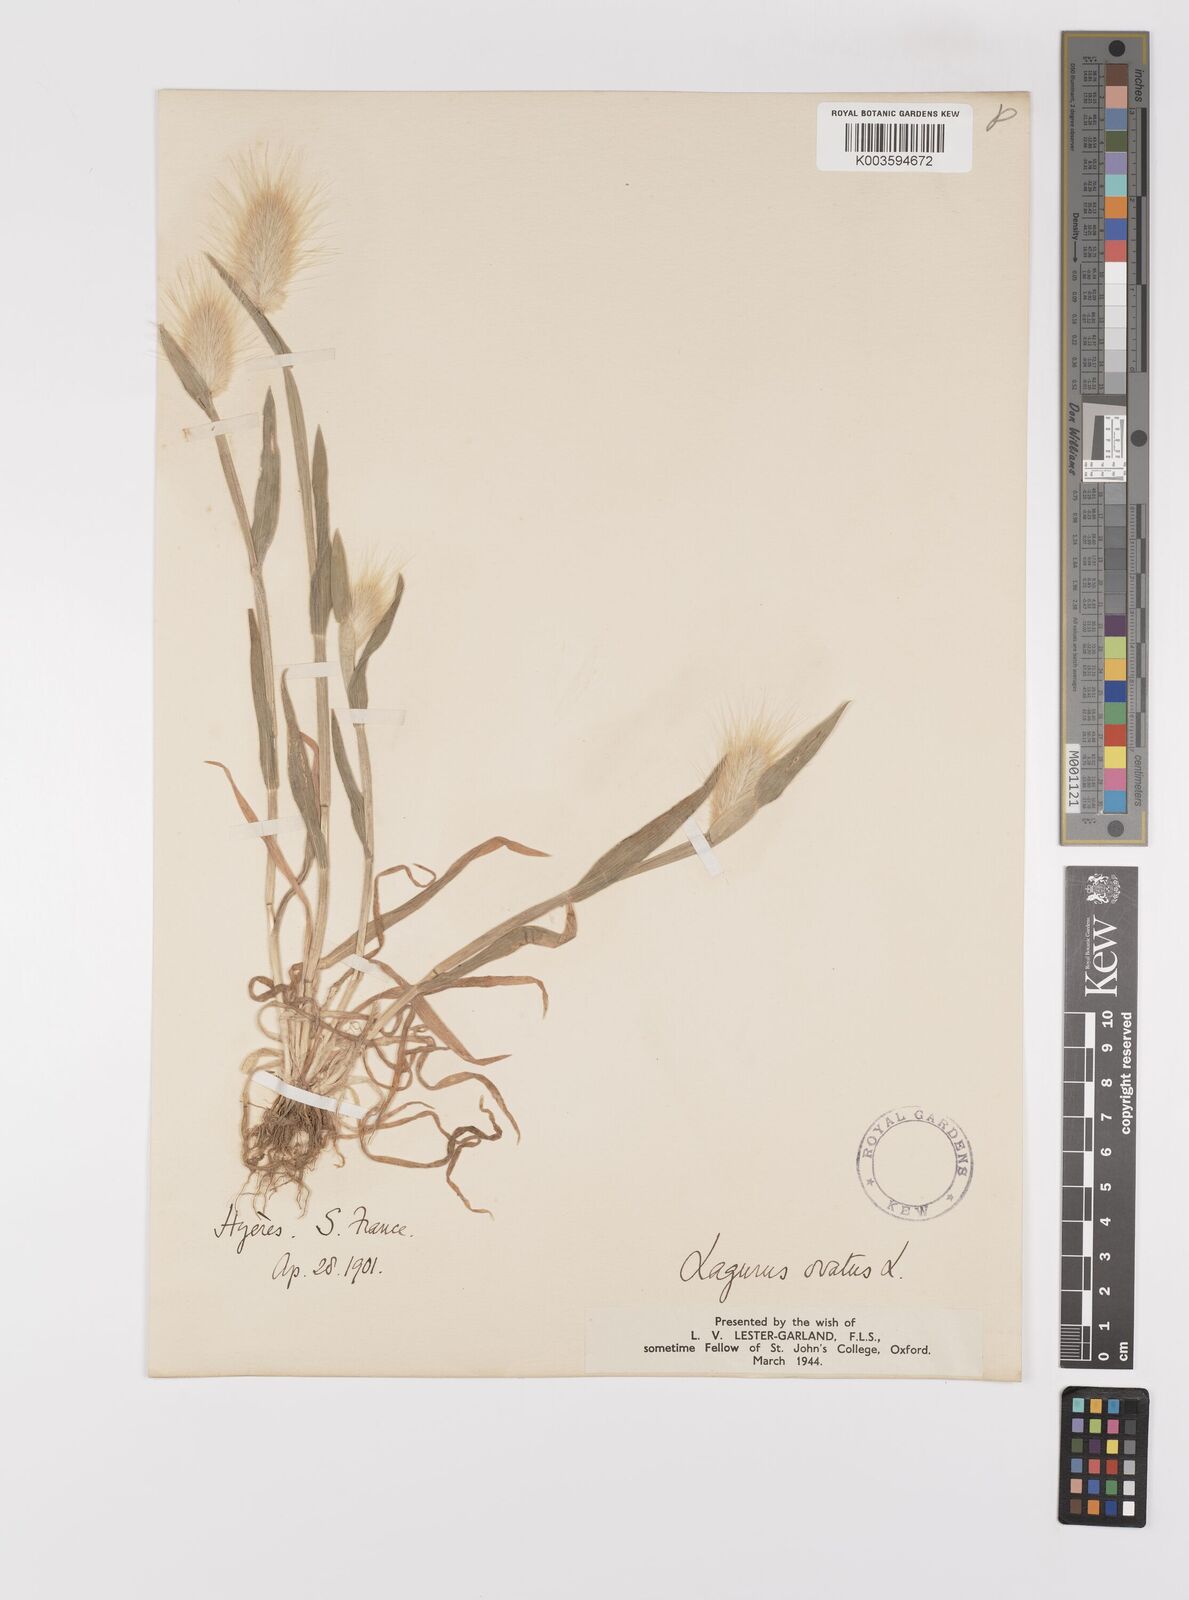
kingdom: Plantae
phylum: Tracheophyta
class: Liliopsida
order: Poales
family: Poaceae
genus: Lagurus
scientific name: Lagurus ovatus
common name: Hare's-tail
